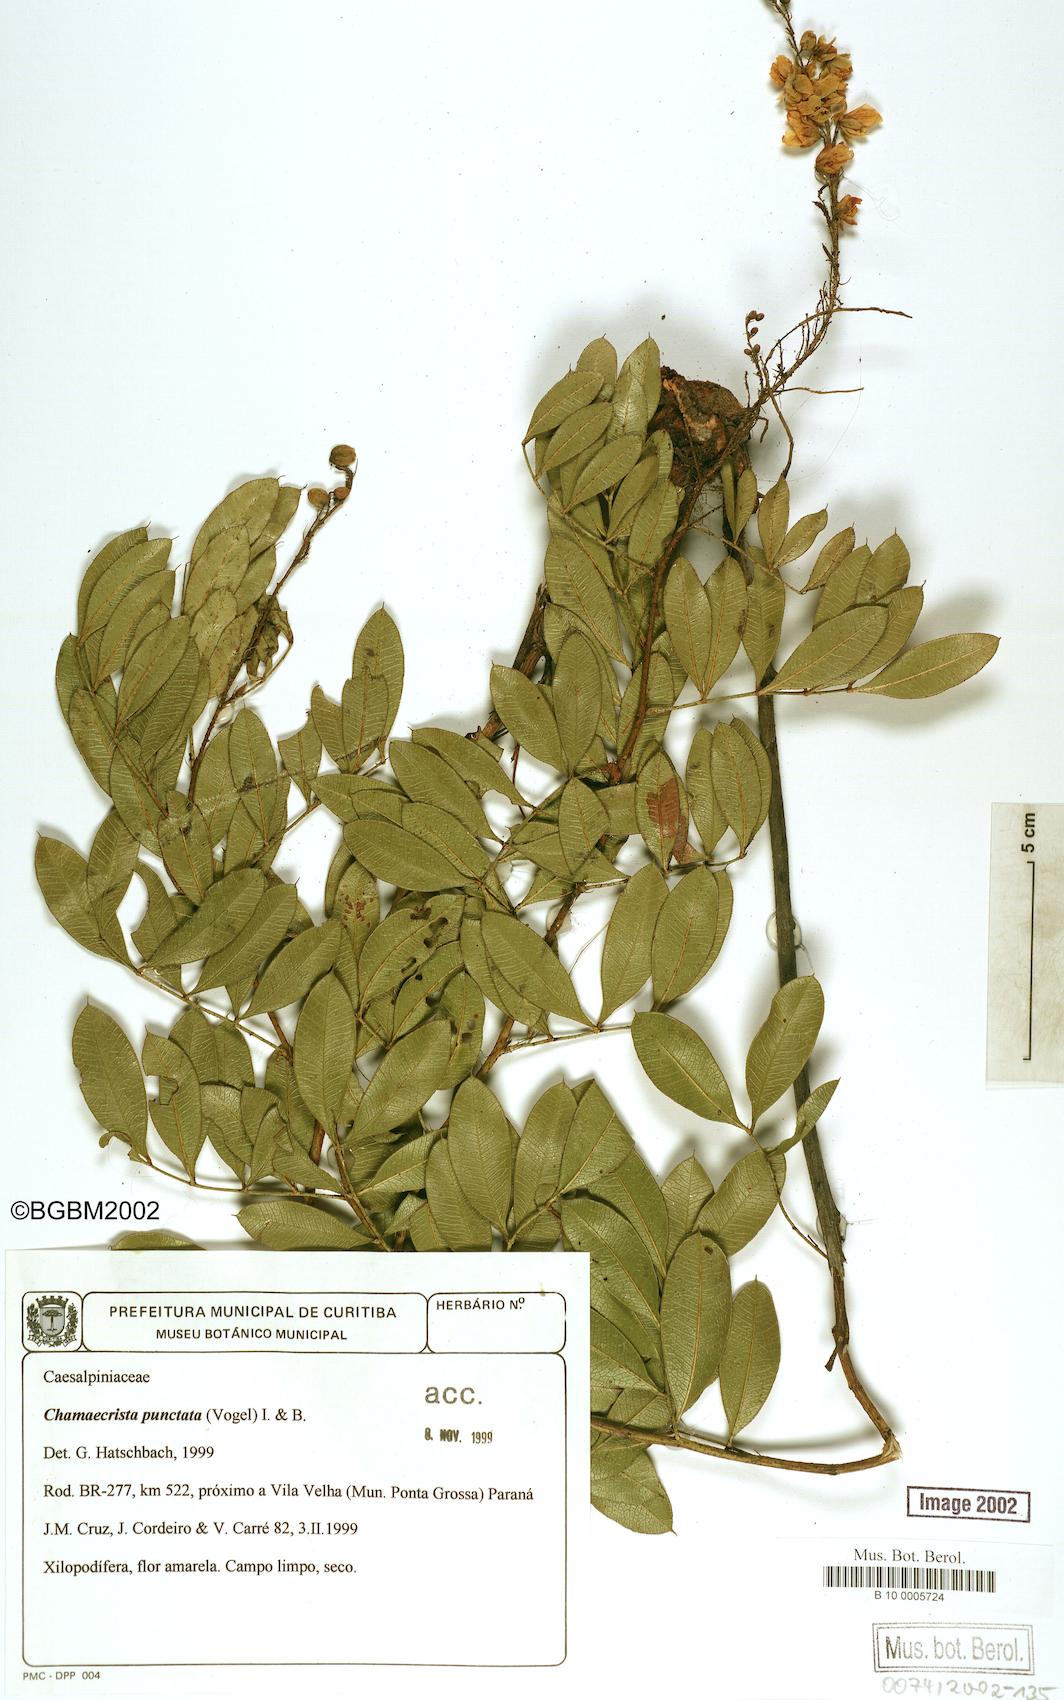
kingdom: Plantae
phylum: Tracheophyta
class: Magnoliopsida
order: Fabales
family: Fabaceae
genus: Chamaecrista
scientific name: Chamaecrista punctata
